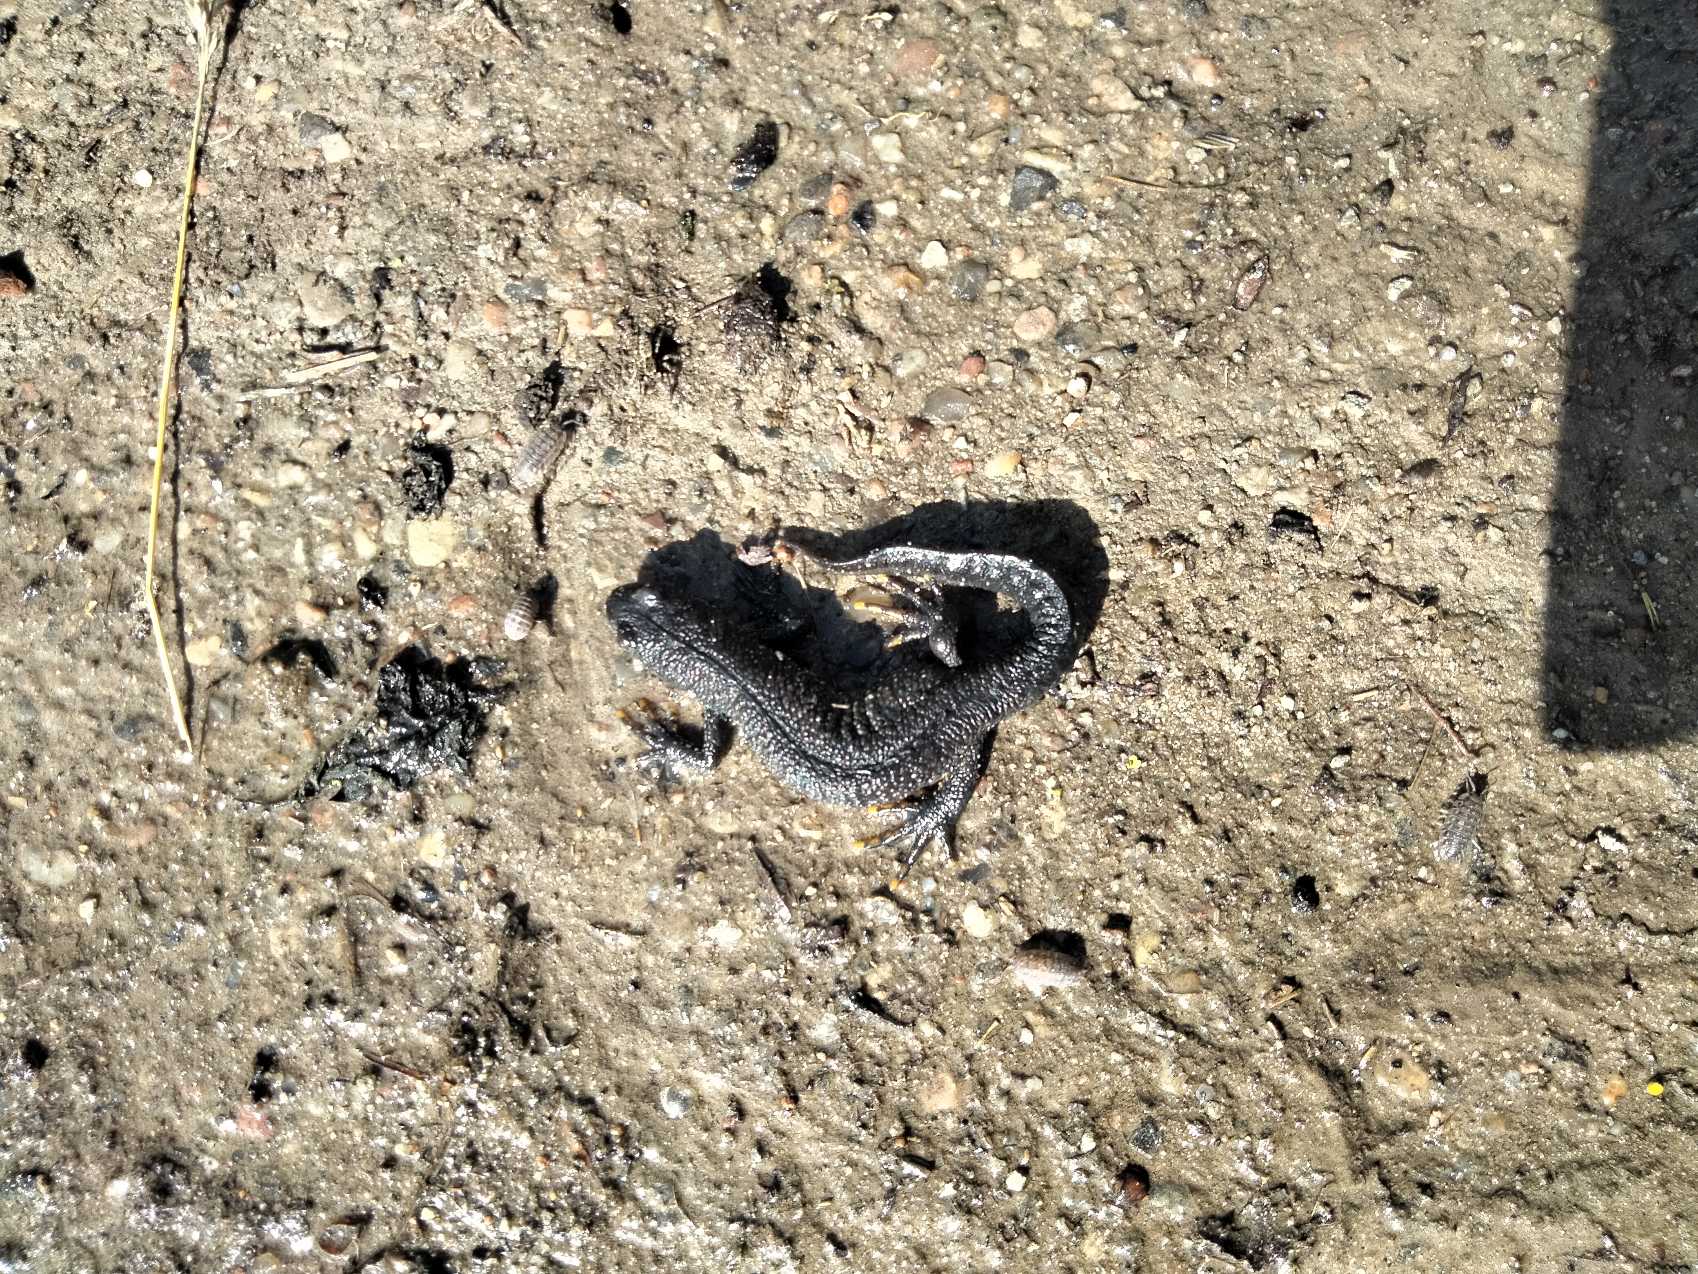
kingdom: Animalia
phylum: Chordata
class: Amphibia
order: Caudata
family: Salamandridae
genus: Triturus
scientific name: Triturus cristatus
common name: Stor vandsalamander
